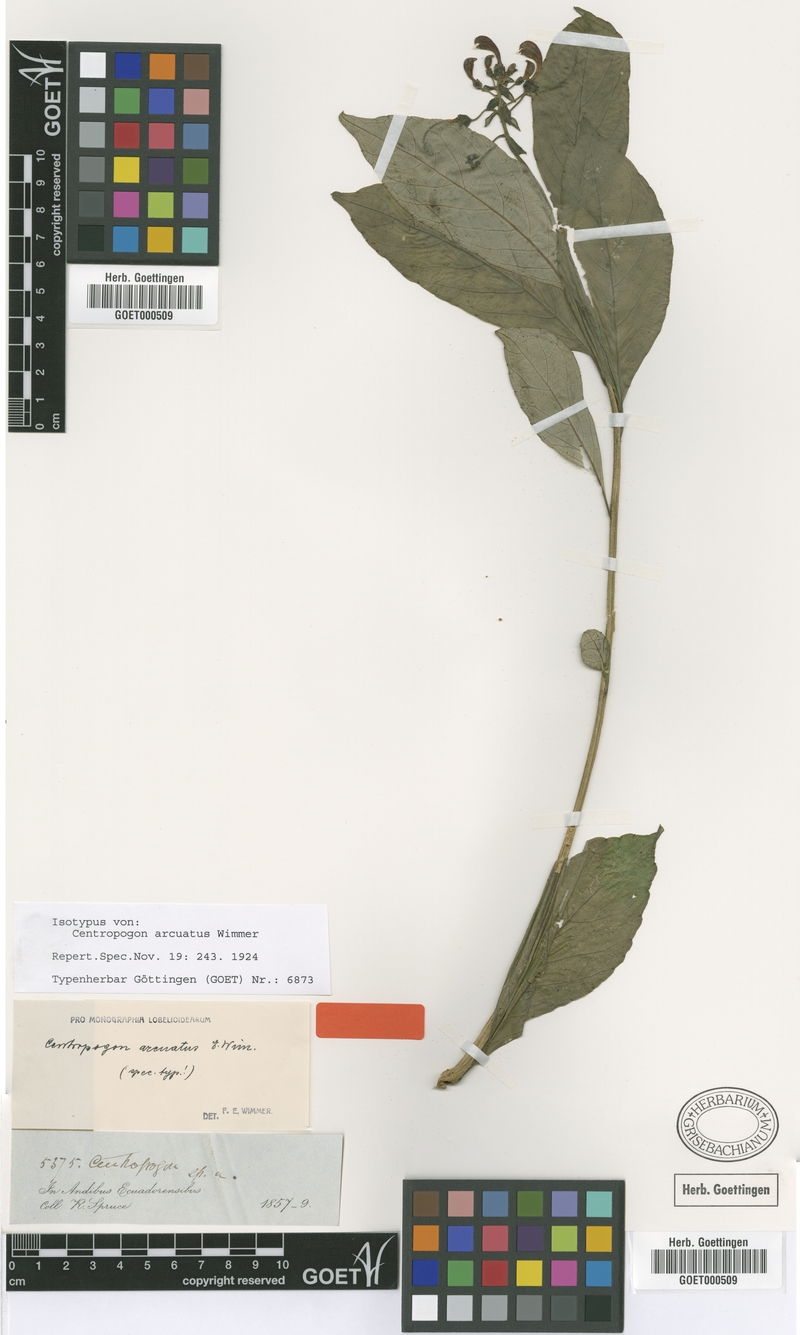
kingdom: Plantae
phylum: Tracheophyta
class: Magnoliopsida
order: Asterales
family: Campanulaceae
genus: Centropogon
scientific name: Centropogon arcuatus
